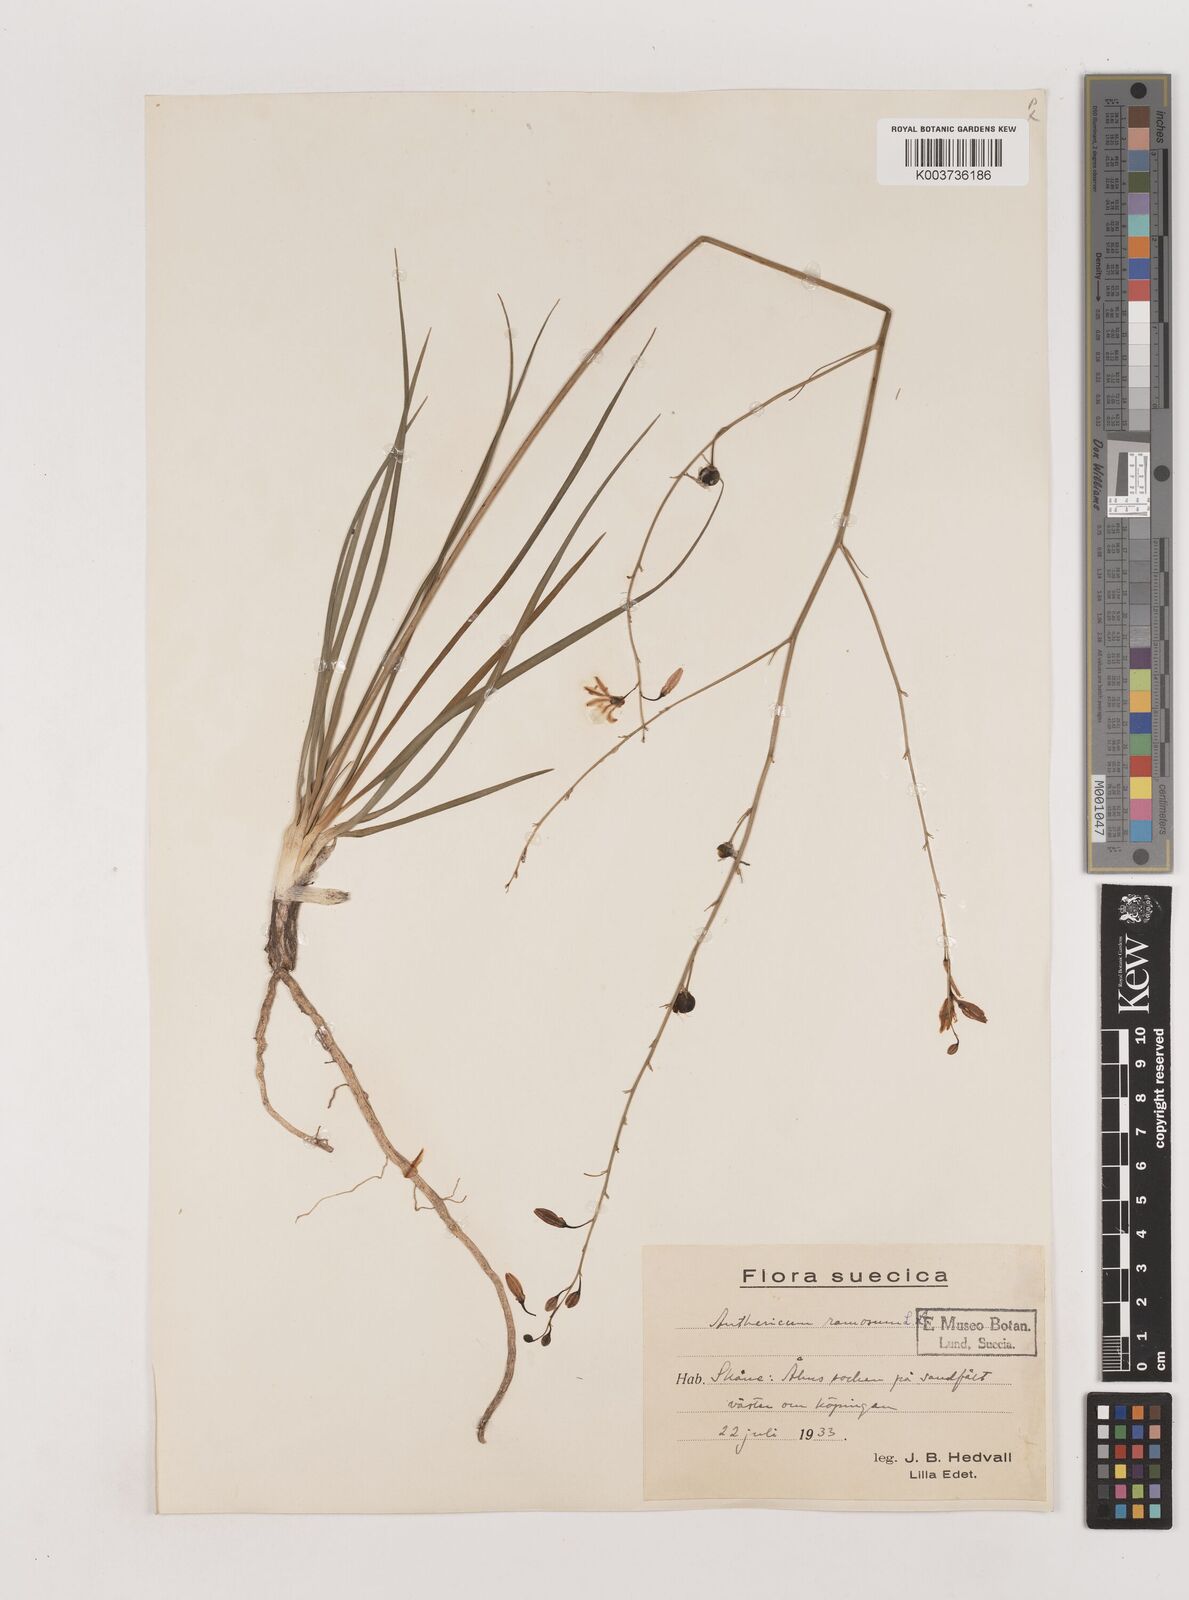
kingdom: Plantae
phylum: Tracheophyta
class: Liliopsida
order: Asparagales
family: Asparagaceae
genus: Anthericum
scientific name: Anthericum ramosum
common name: Branched st. bernard's-lily
